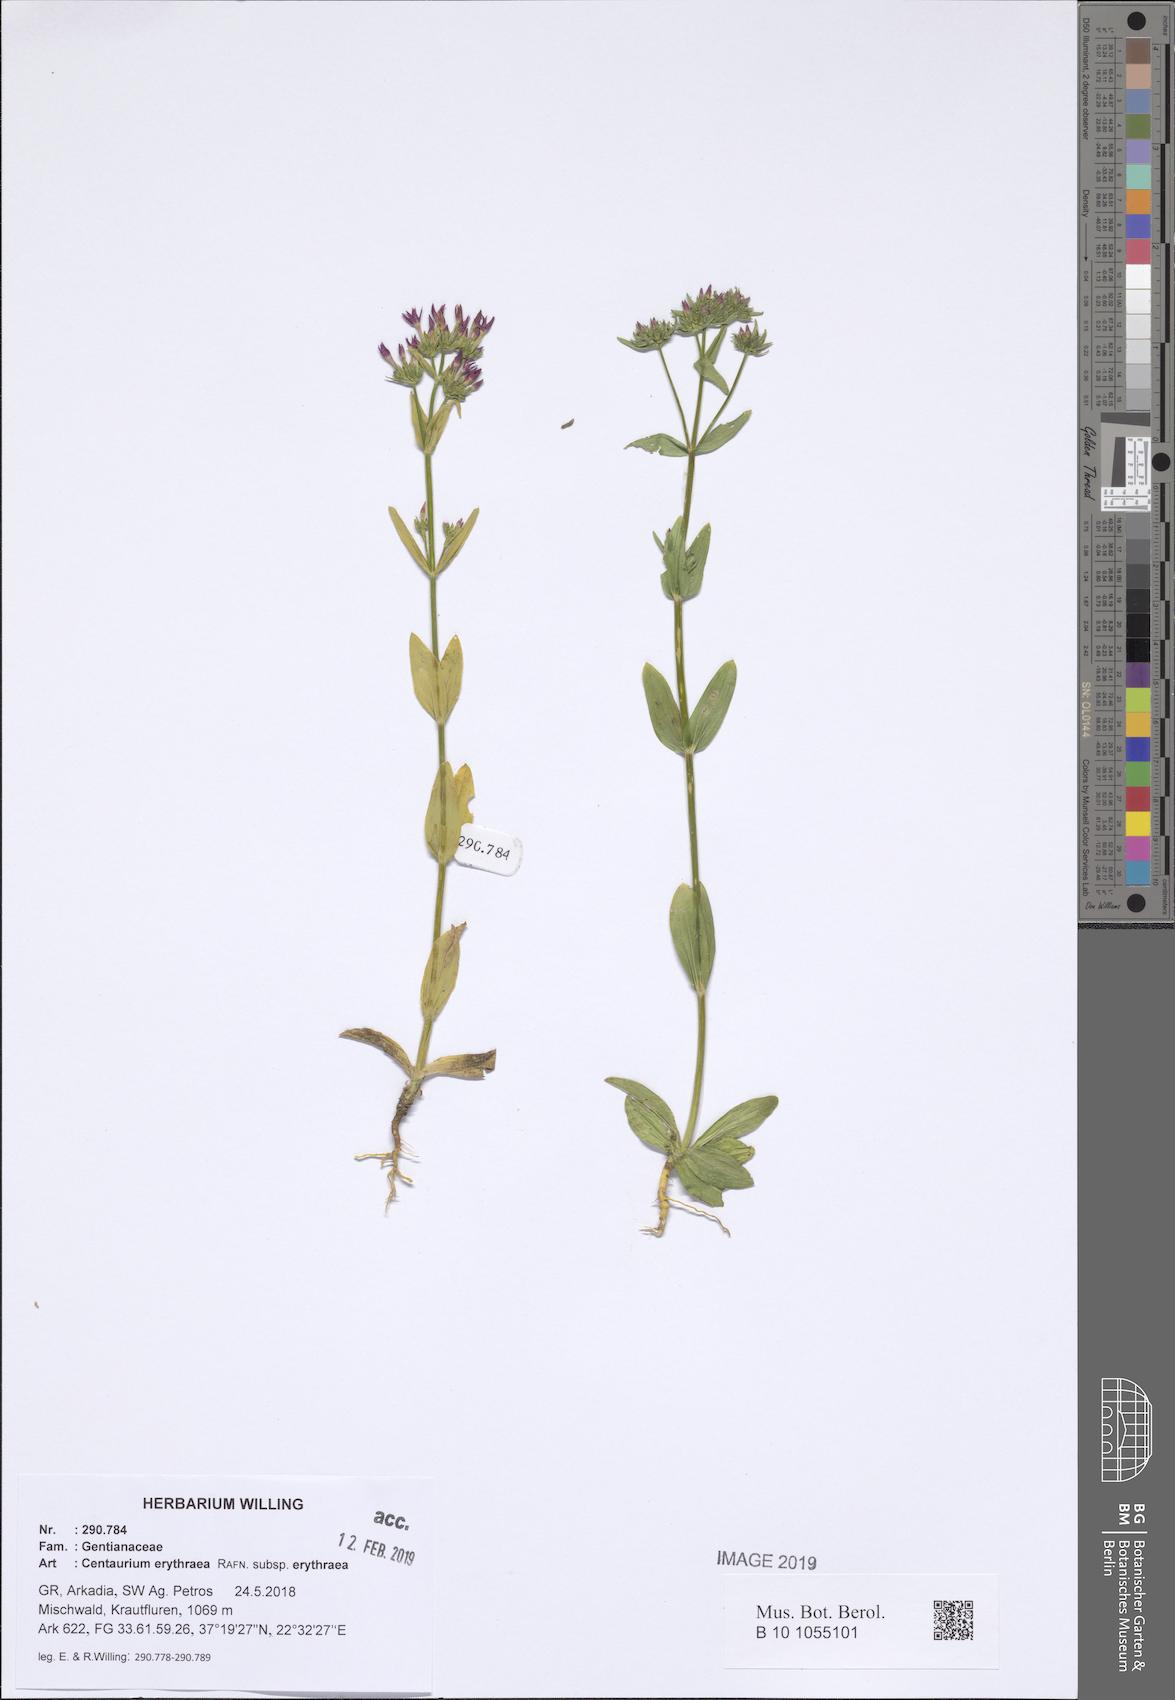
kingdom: Plantae
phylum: Tracheophyta
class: Magnoliopsida
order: Gentianales
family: Gentianaceae
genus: Centaurium
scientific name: Centaurium erythraea
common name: Common centaury
